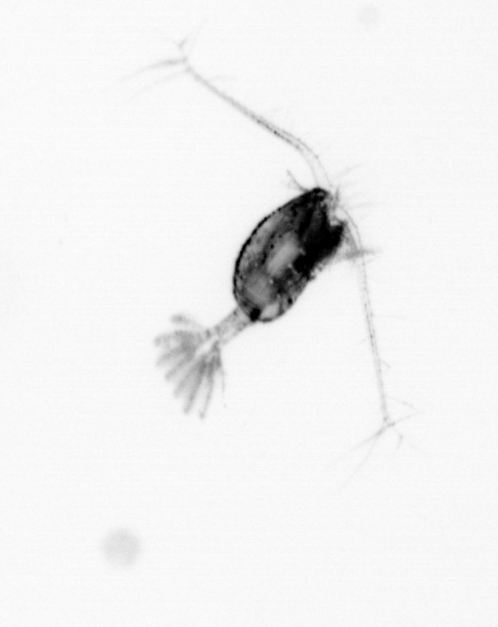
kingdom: Animalia
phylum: Arthropoda
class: Copepoda
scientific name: Copepoda
